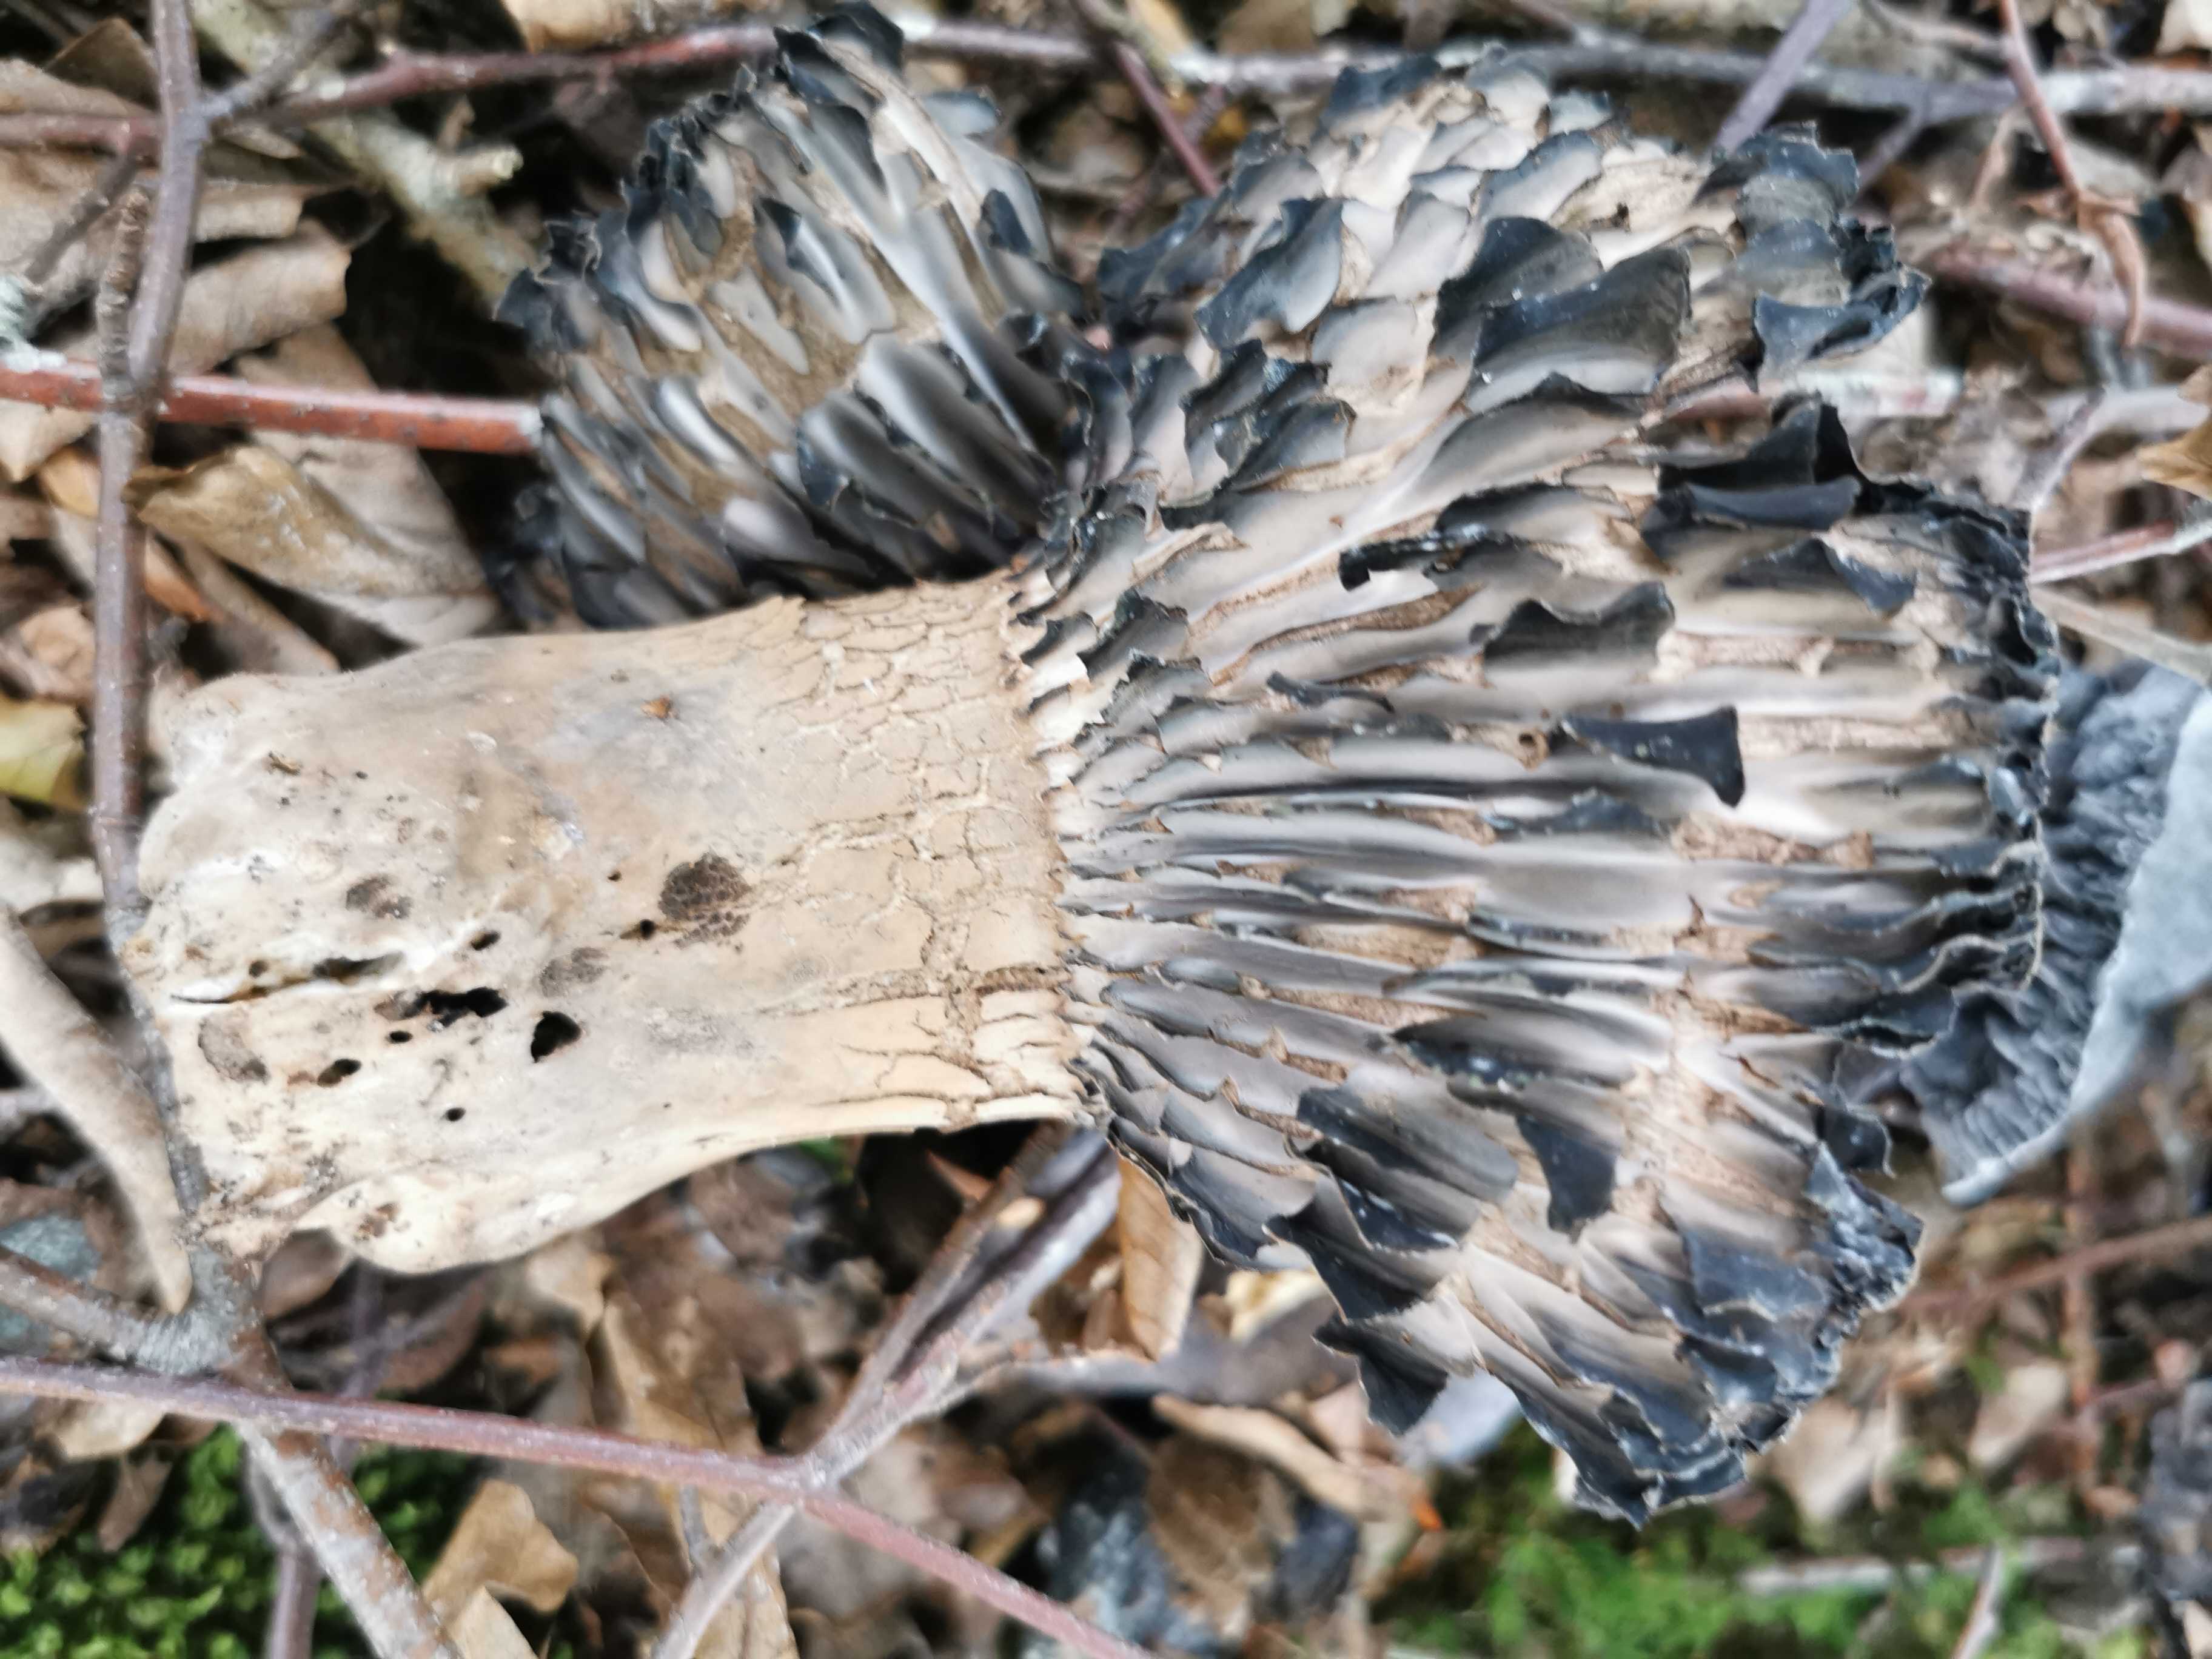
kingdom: Fungi
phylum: Basidiomycota
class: Agaricomycetes
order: Russulales
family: Russulaceae
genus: Russula
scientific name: Russula adusta
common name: sværtende skørhat
